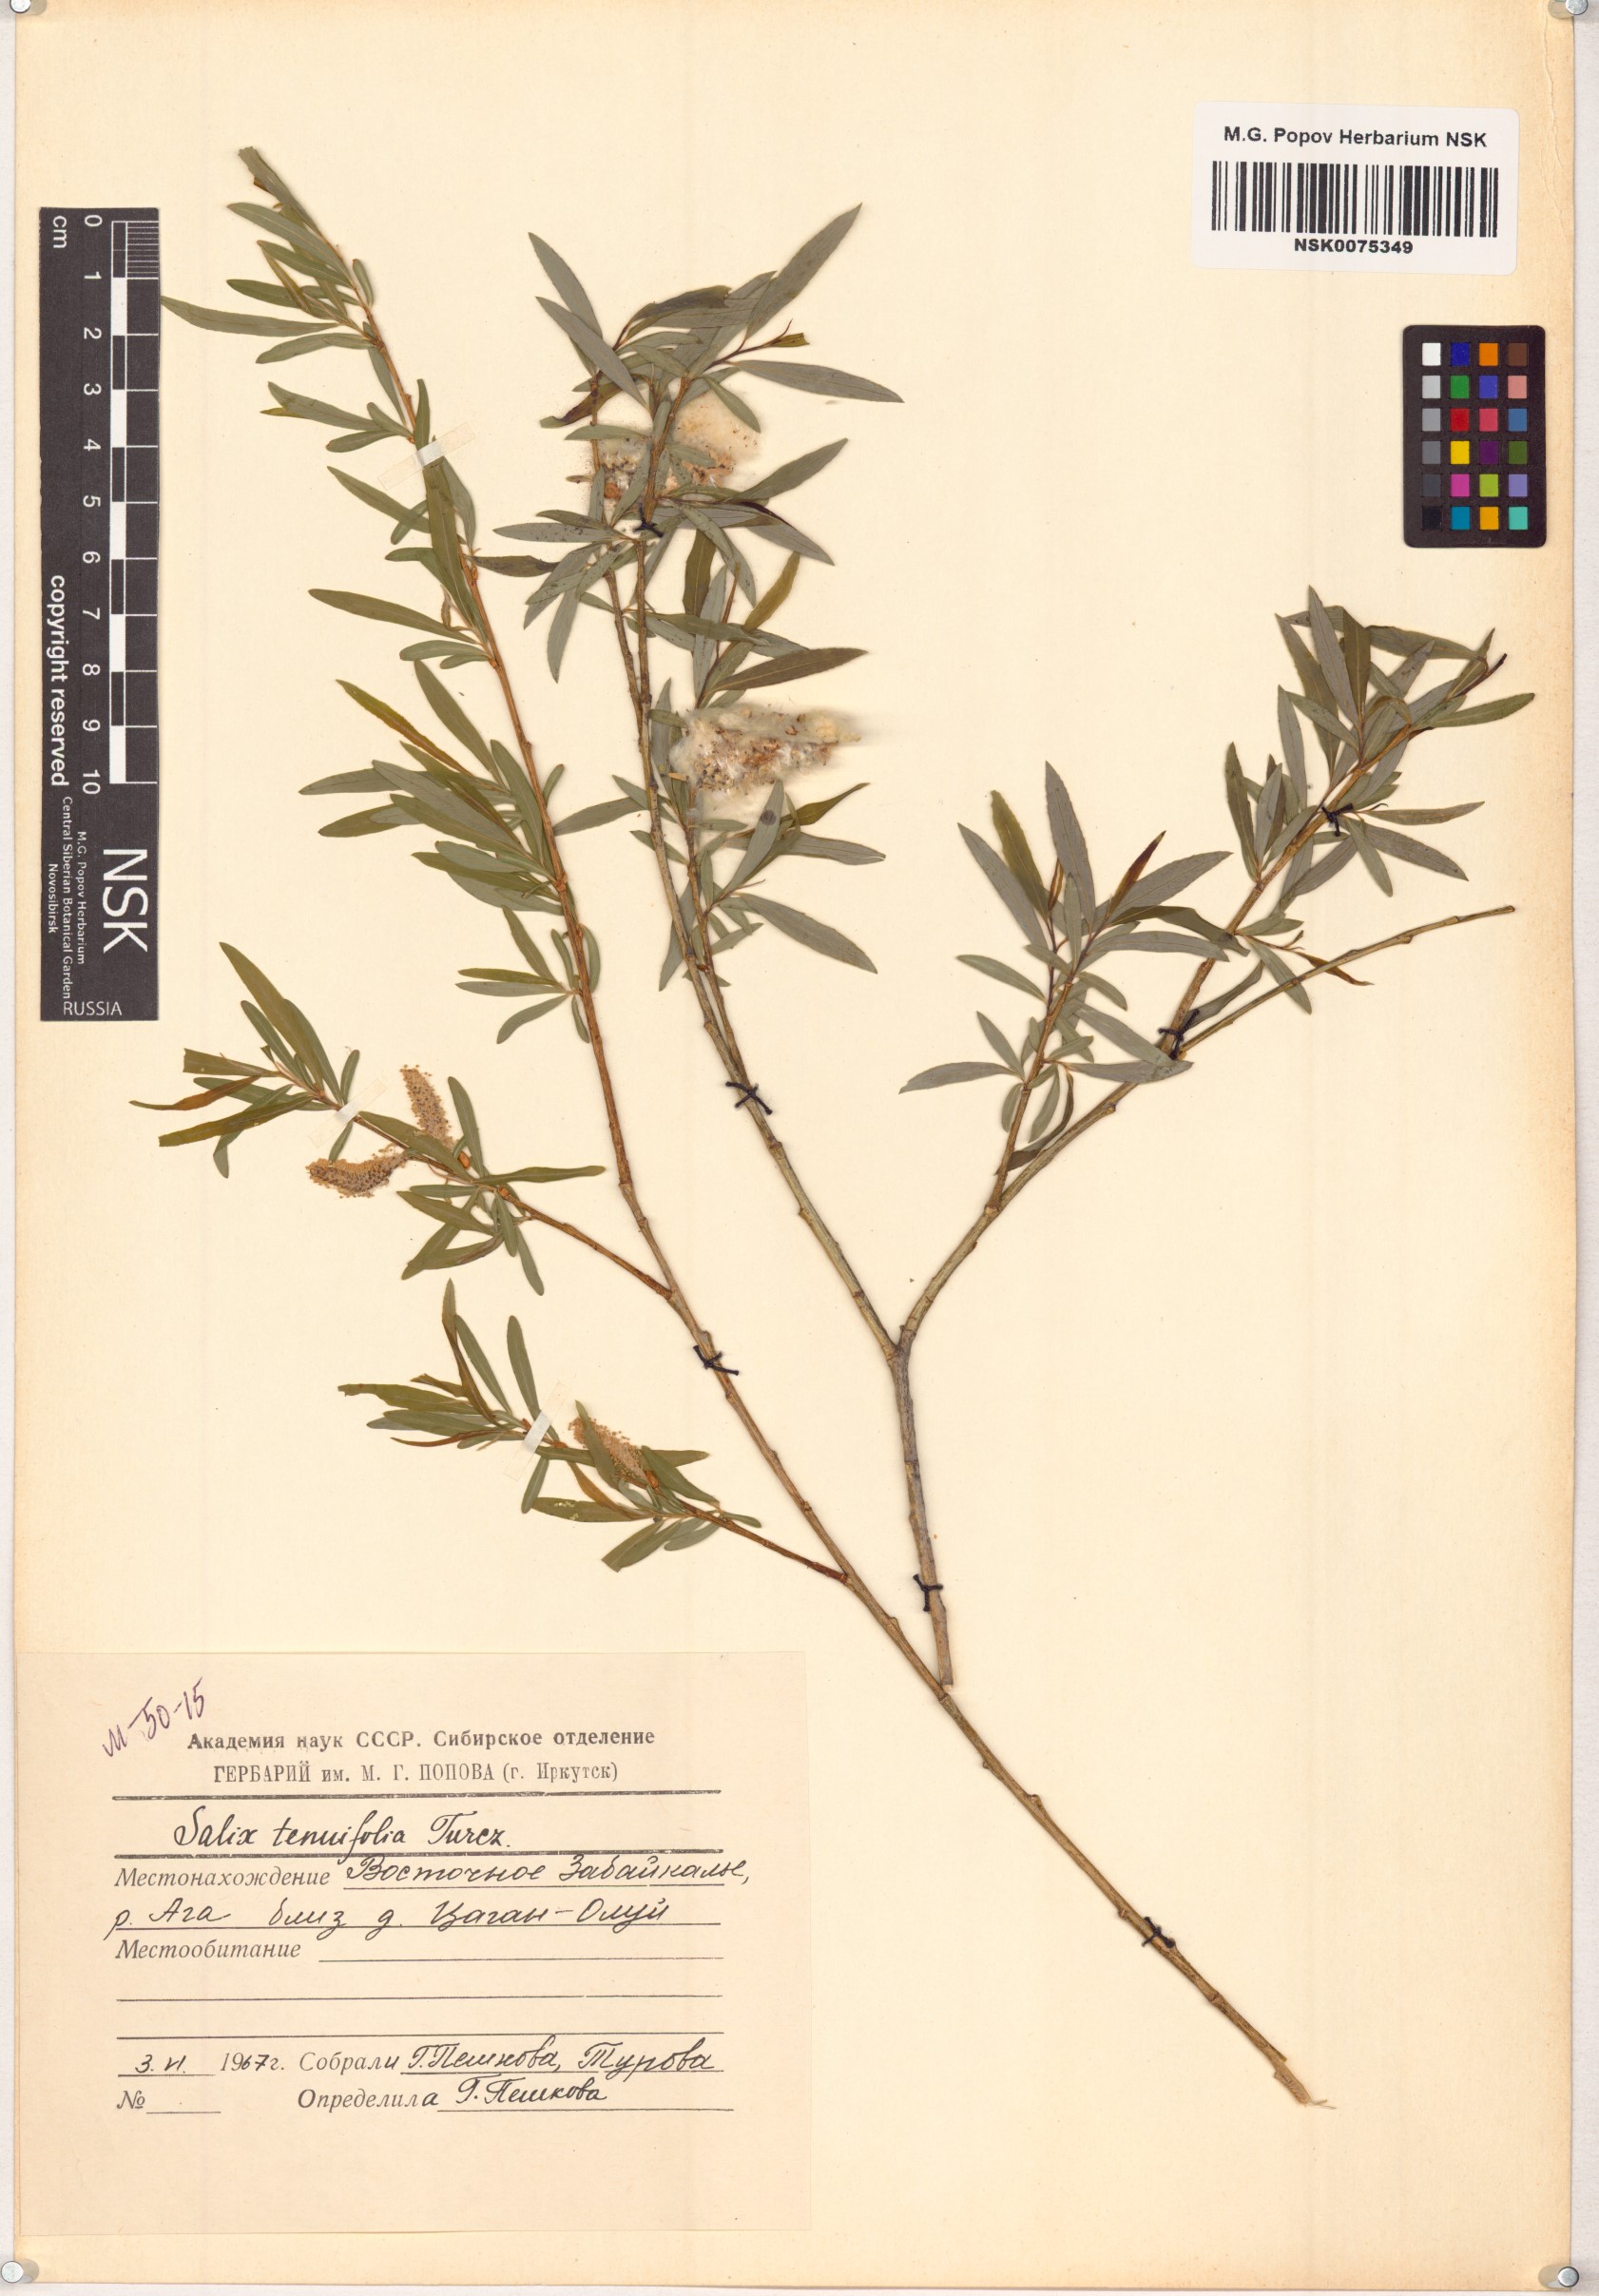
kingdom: Plantae
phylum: Tracheophyta
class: Magnoliopsida
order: Malpighiales
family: Salicaceae
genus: Salix
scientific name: Salix
